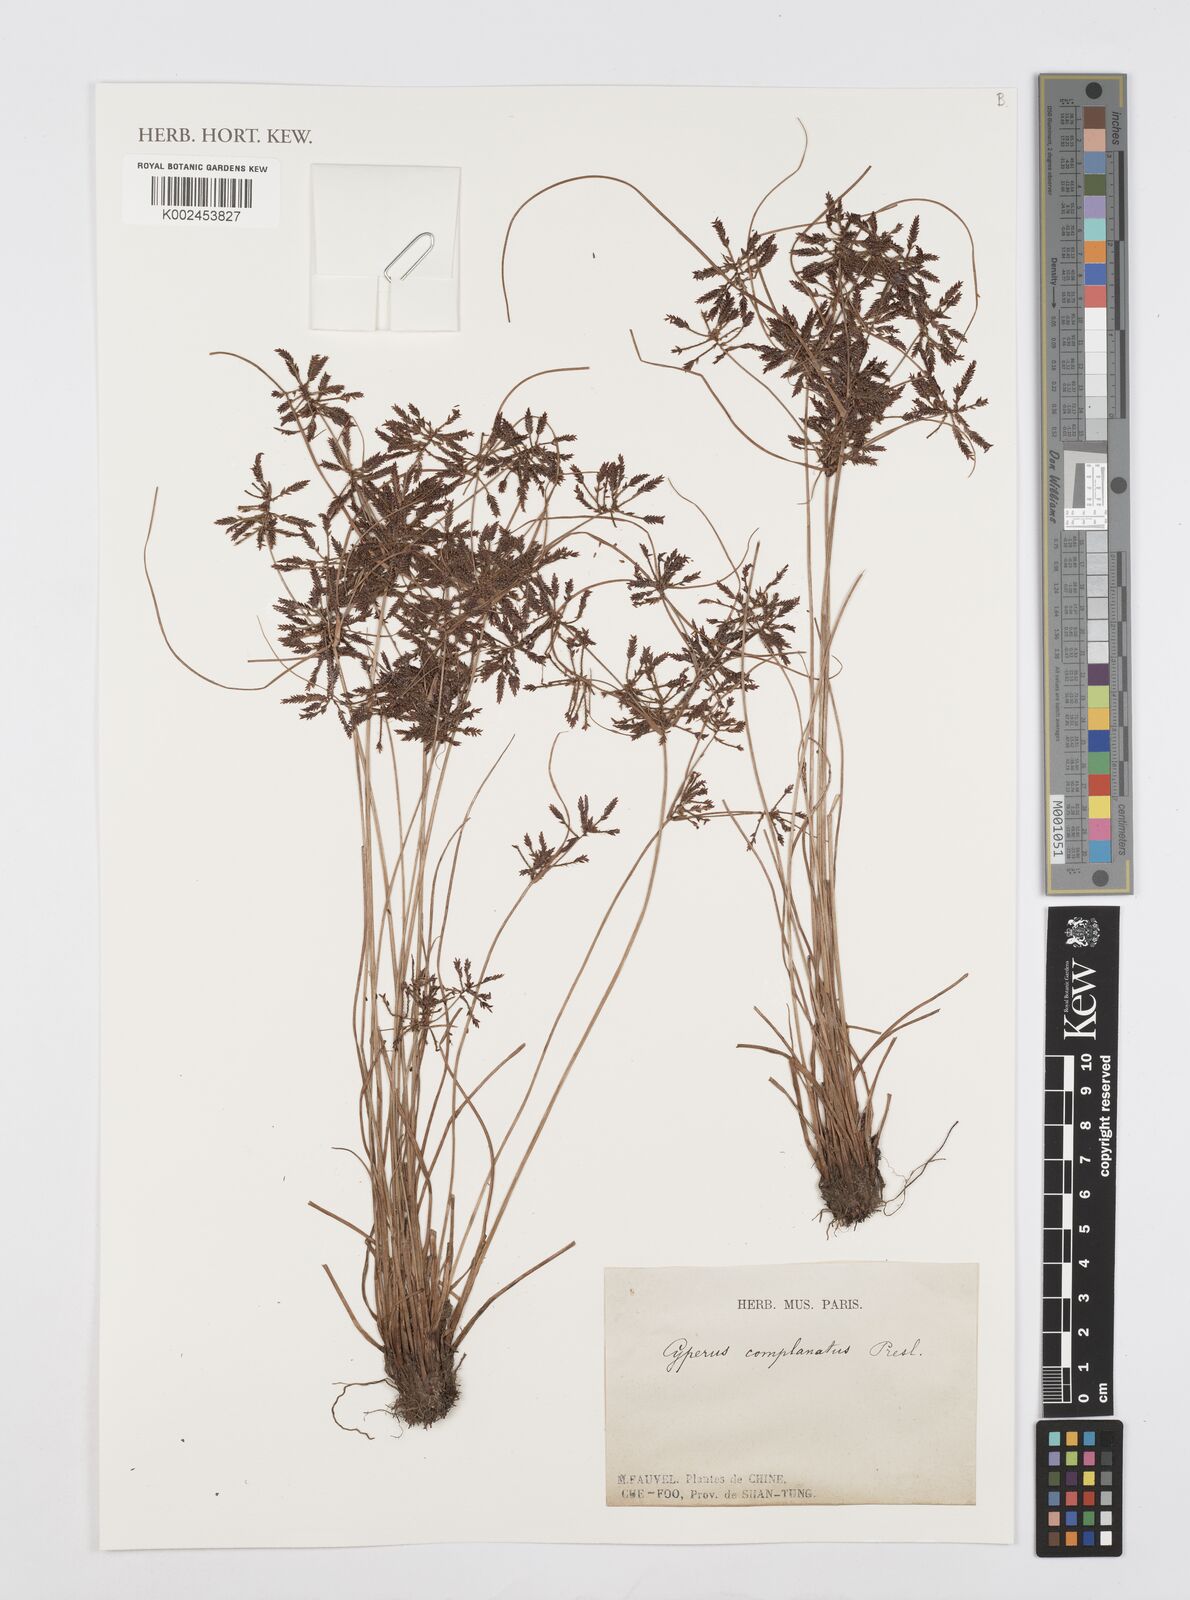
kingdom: Plantae
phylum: Tracheophyta
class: Liliopsida
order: Poales
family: Cyperaceae
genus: Cyperus
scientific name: Cyperus flavidus
